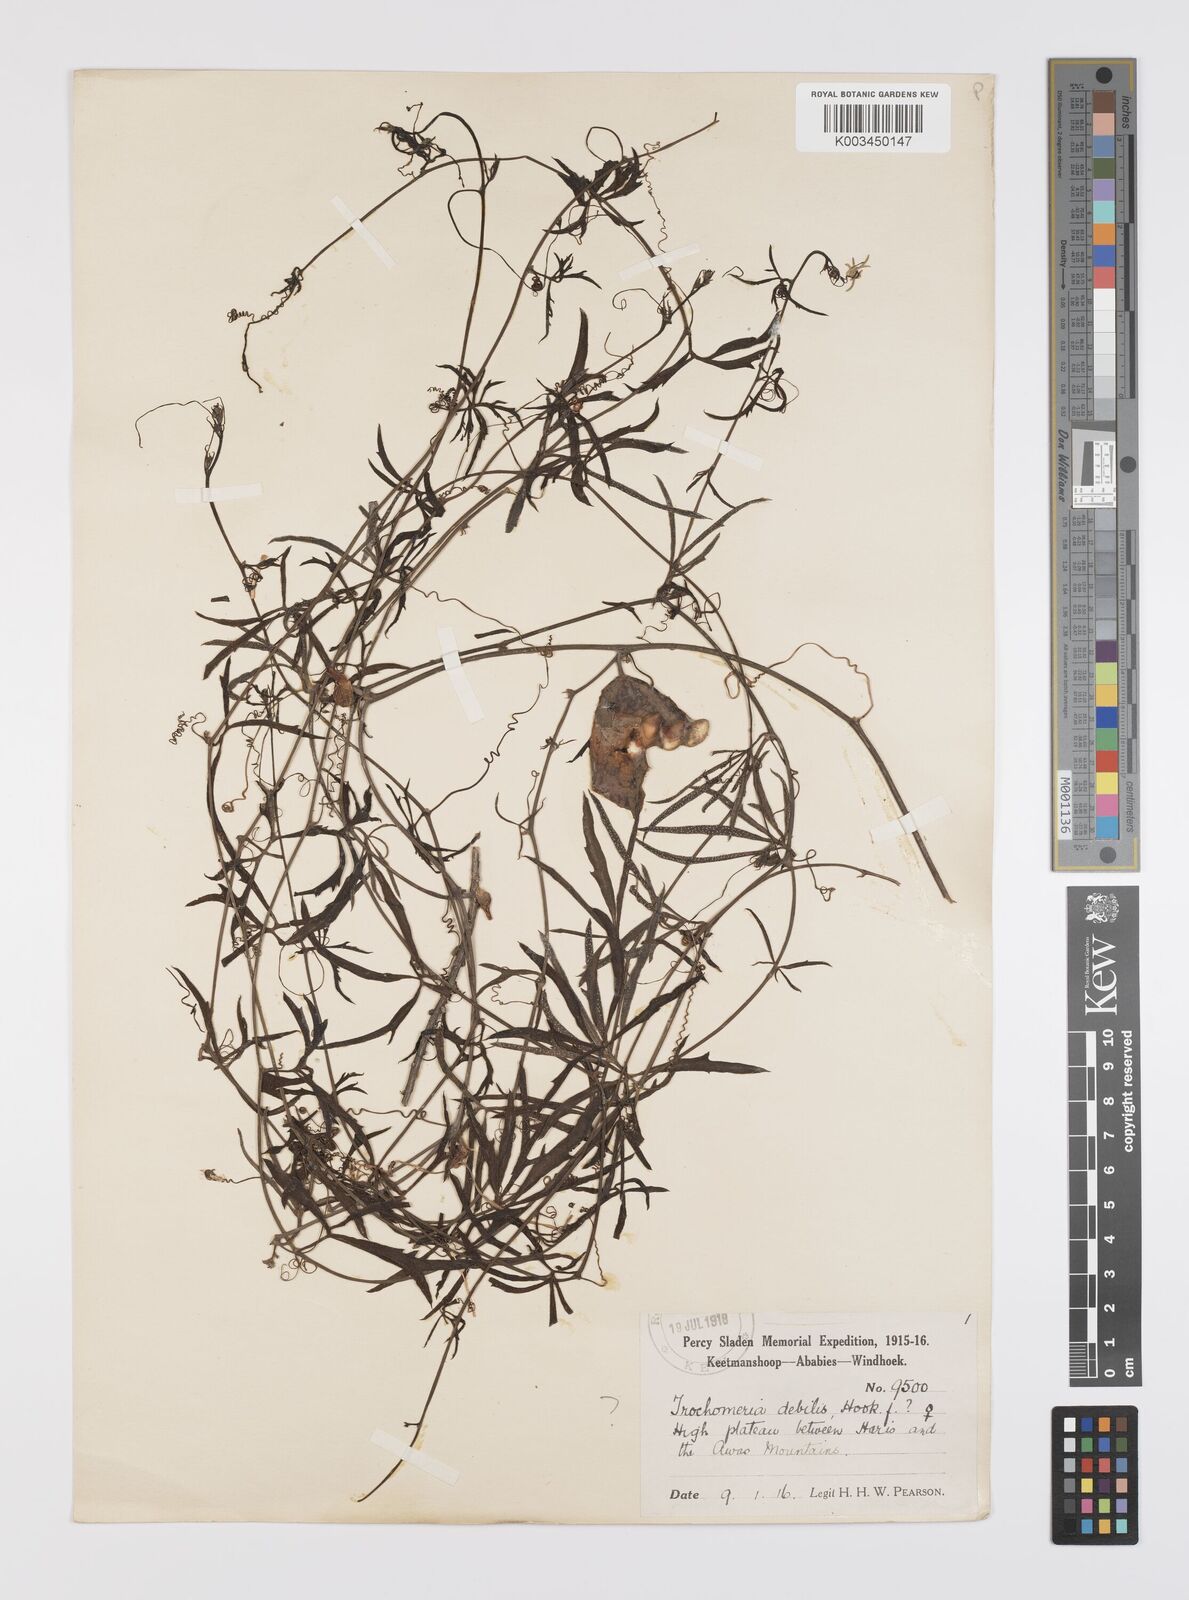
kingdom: Plantae
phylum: Tracheophyta
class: Magnoliopsida
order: Cucurbitales
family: Cucurbitaceae
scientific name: Cucurbitaceae
